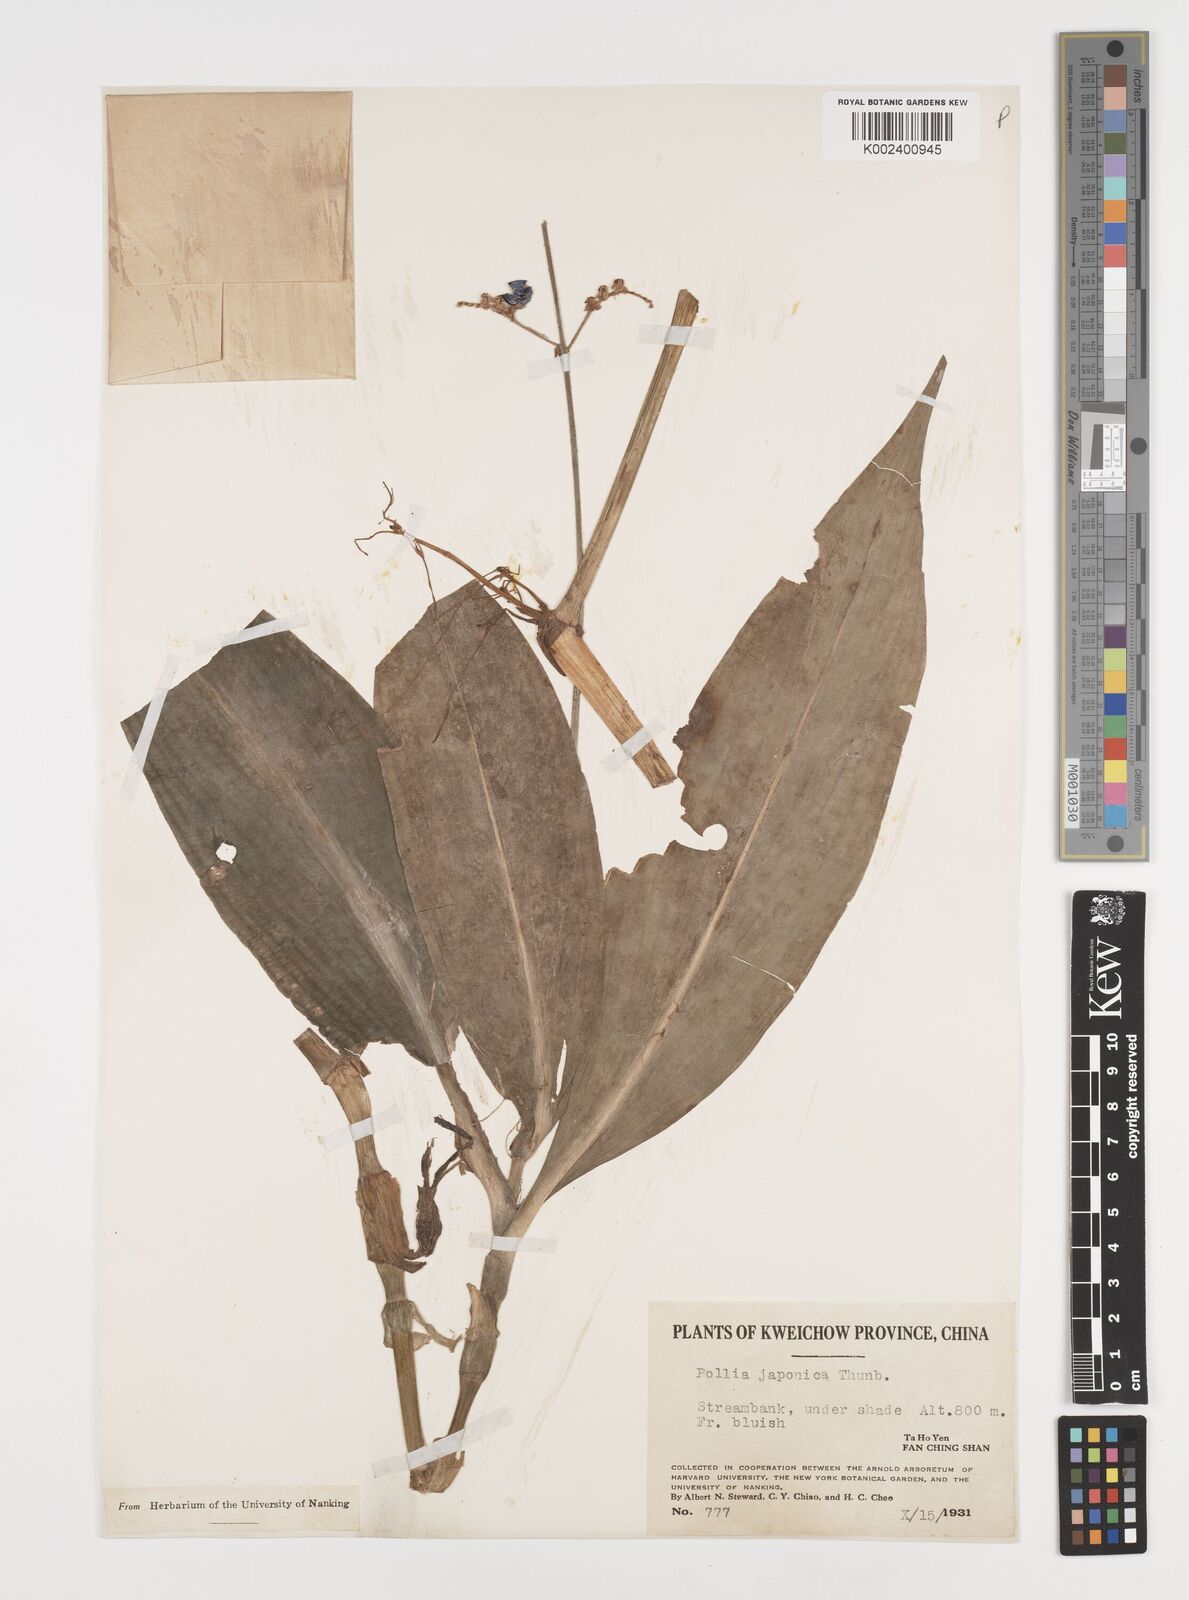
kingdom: Plantae
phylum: Tracheophyta
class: Liliopsida
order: Commelinales
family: Commelinaceae
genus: Pollia
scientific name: Pollia japonica
